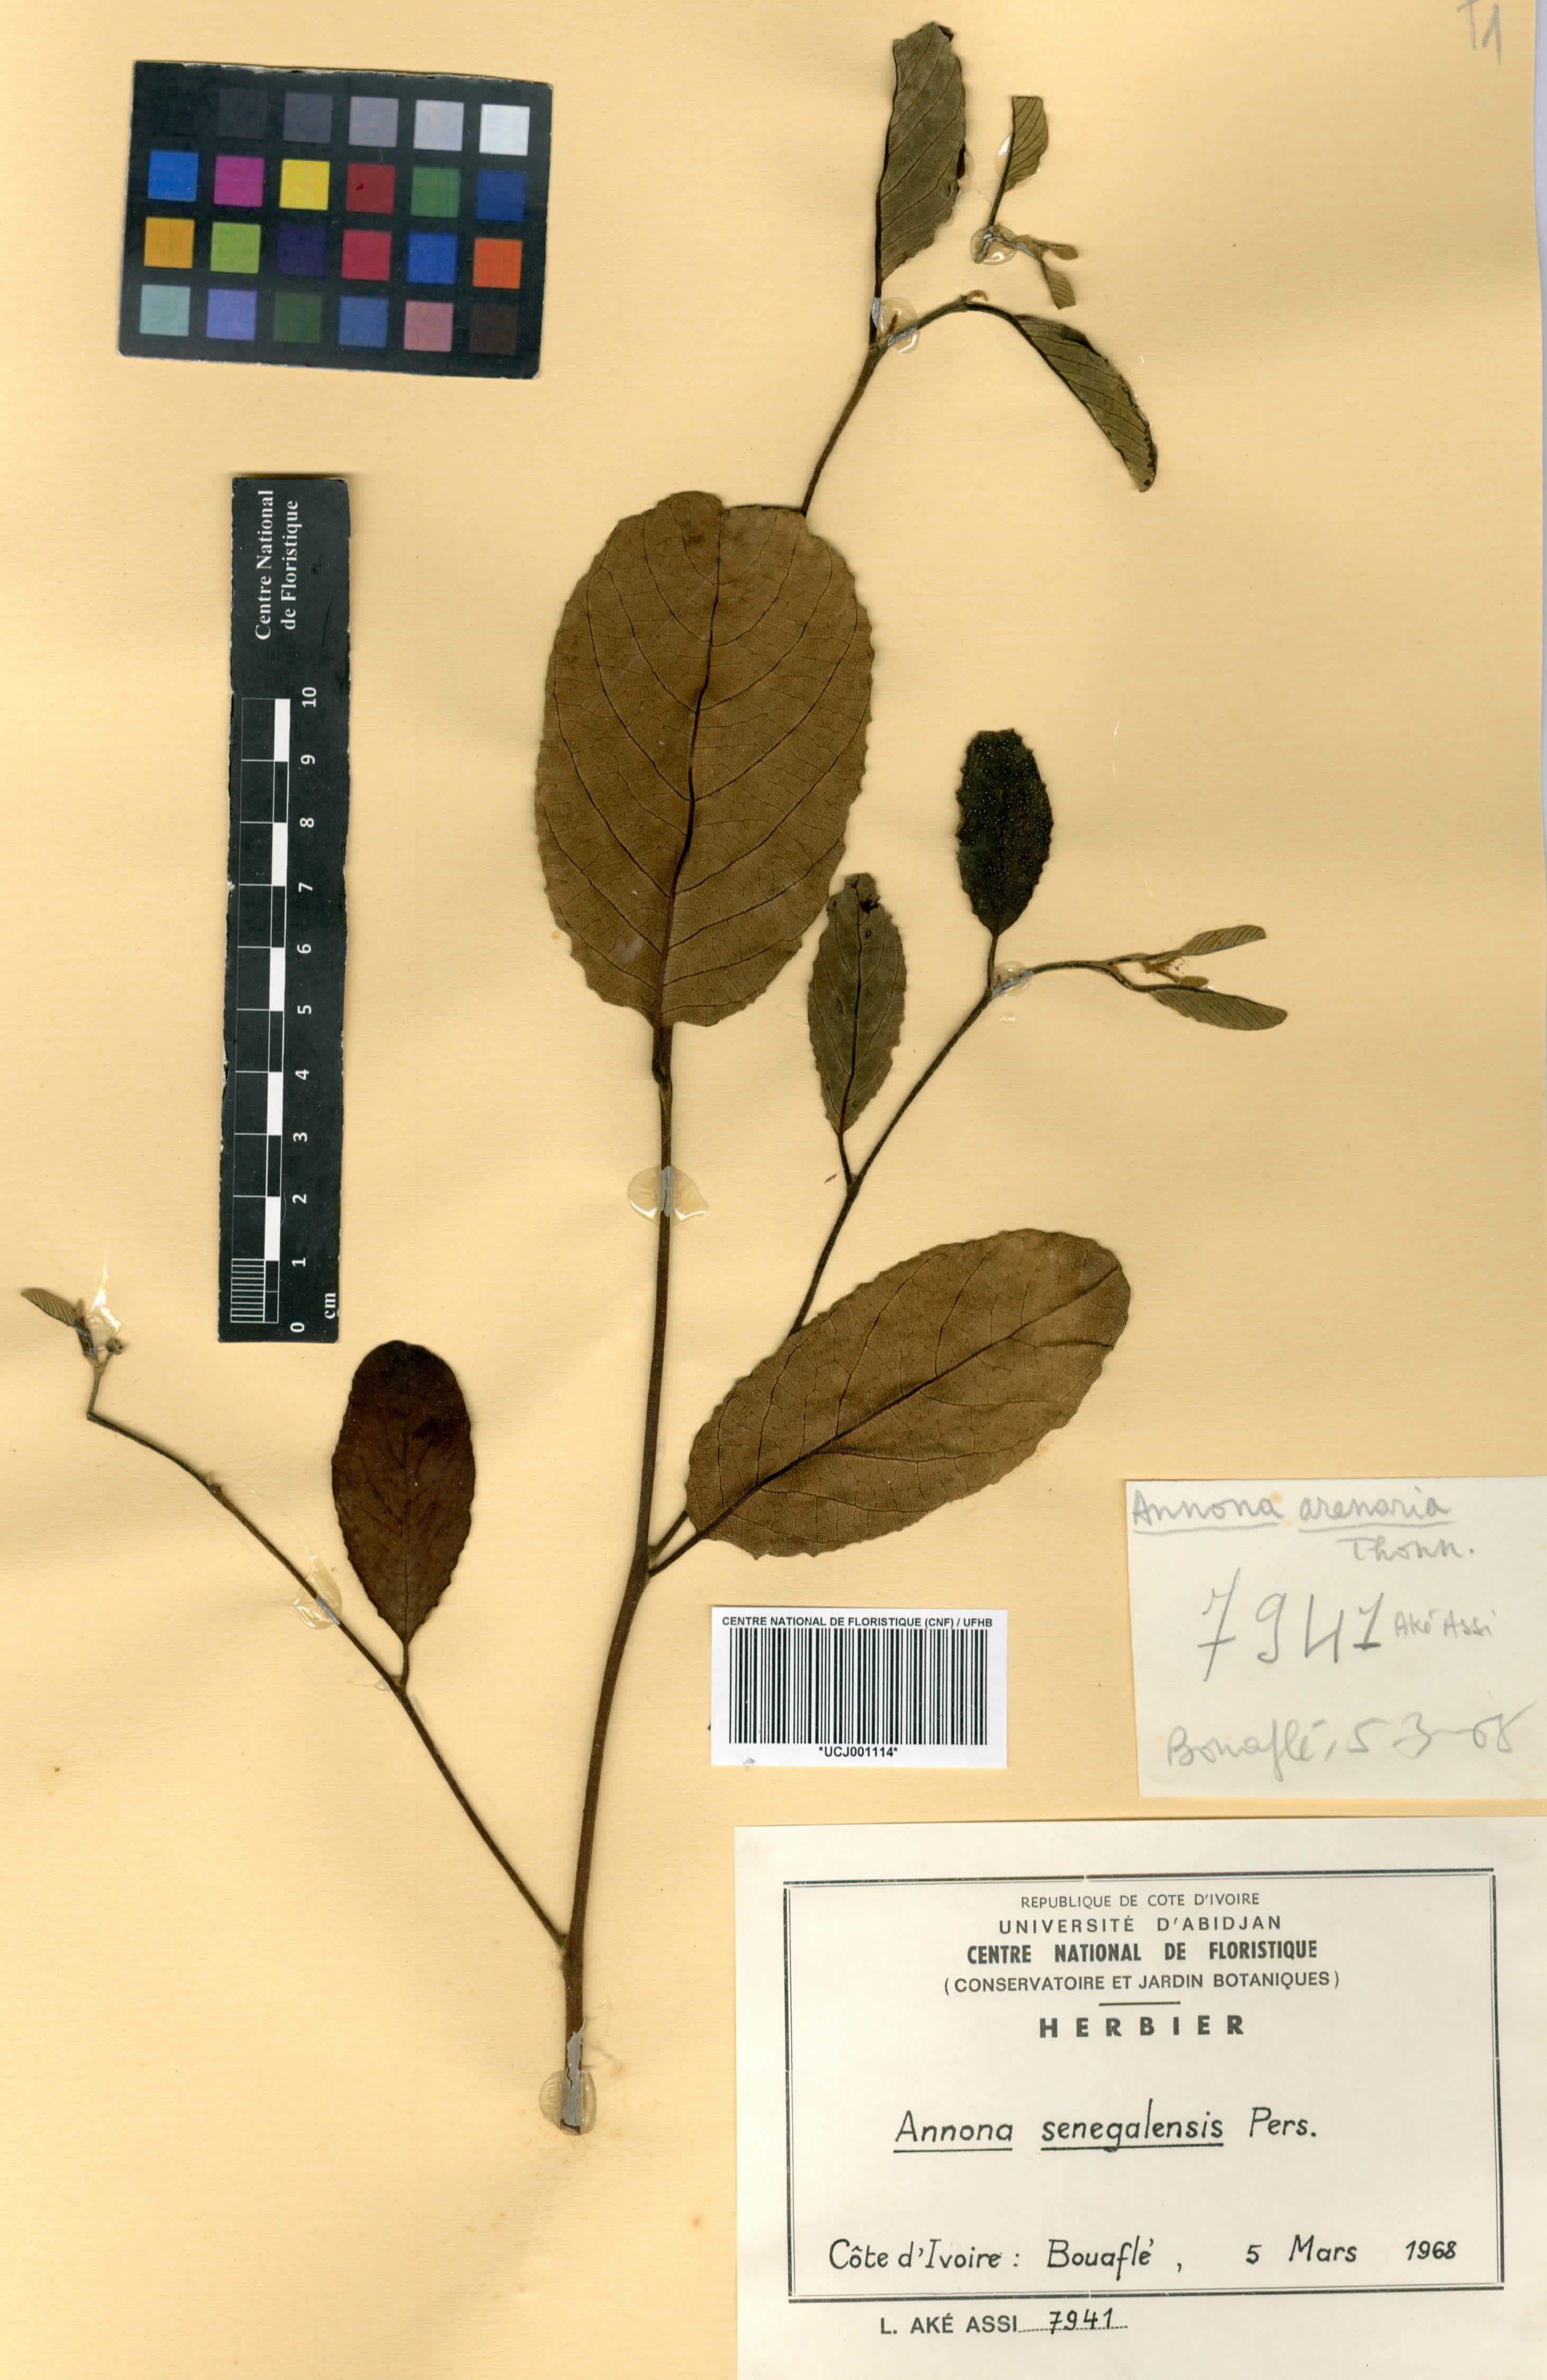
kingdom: Plantae
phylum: Tracheophyta
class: Magnoliopsida
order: Magnoliales
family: Annonaceae
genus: Annona
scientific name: Annona senegalensis
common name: Wild custard-apple
